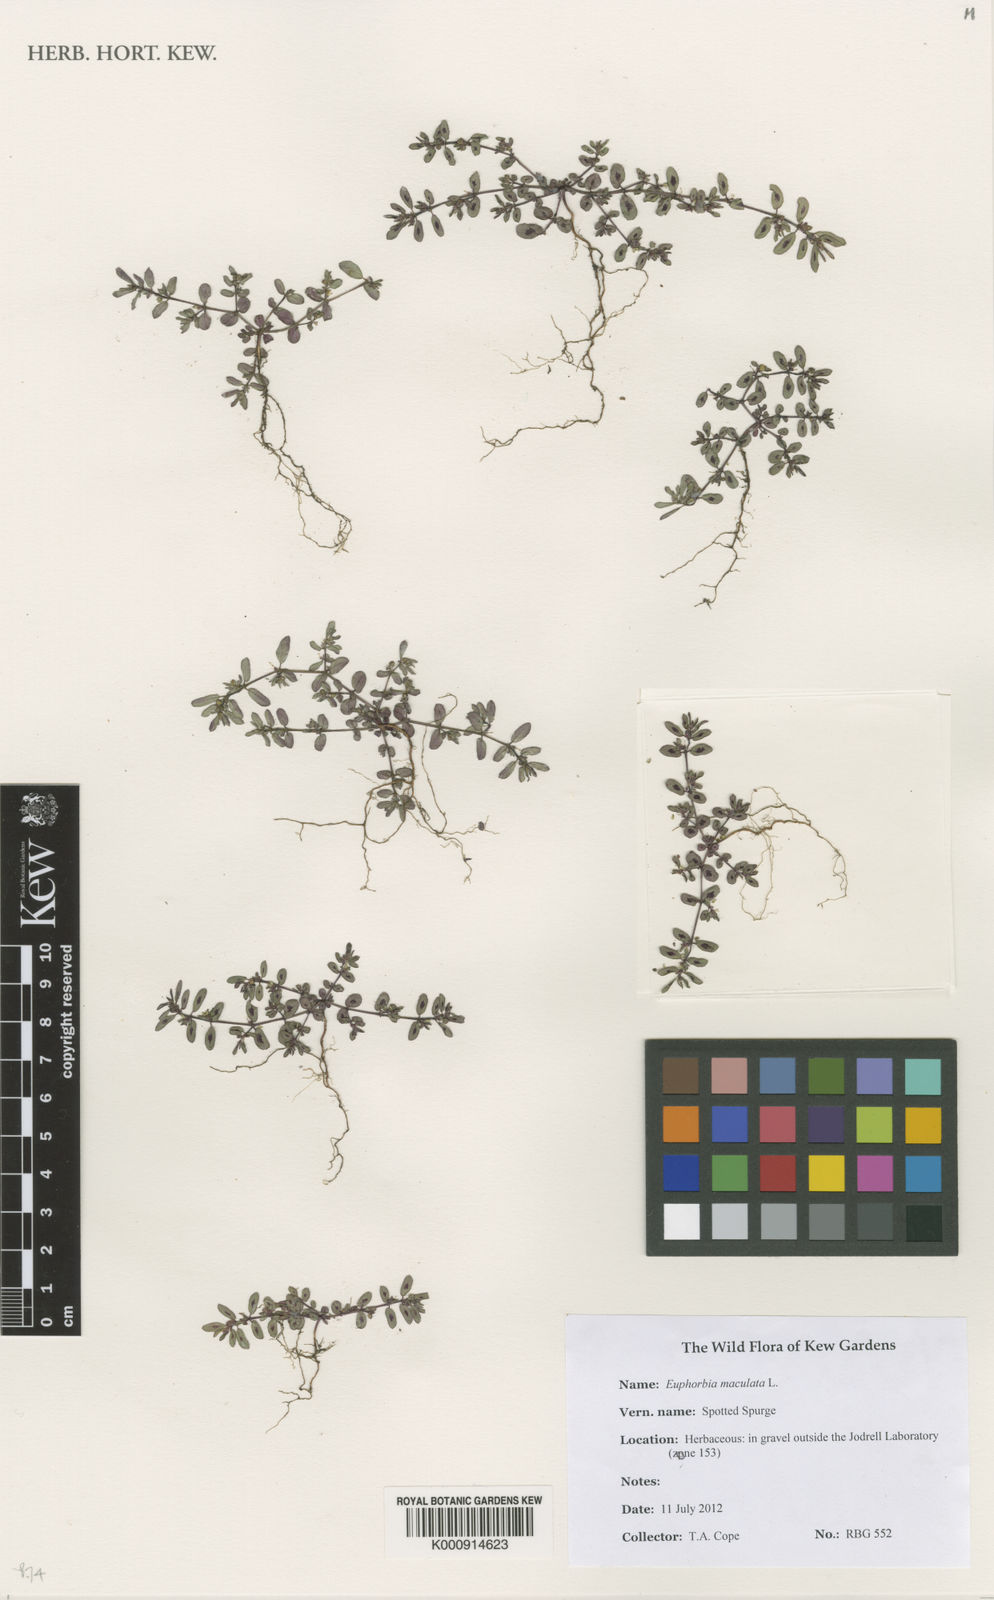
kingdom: Plantae
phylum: Tracheophyta
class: Magnoliopsida
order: Malpighiales
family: Euphorbiaceae
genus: Euphorbia
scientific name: Euphorbia maculata
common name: Spotted spurge
